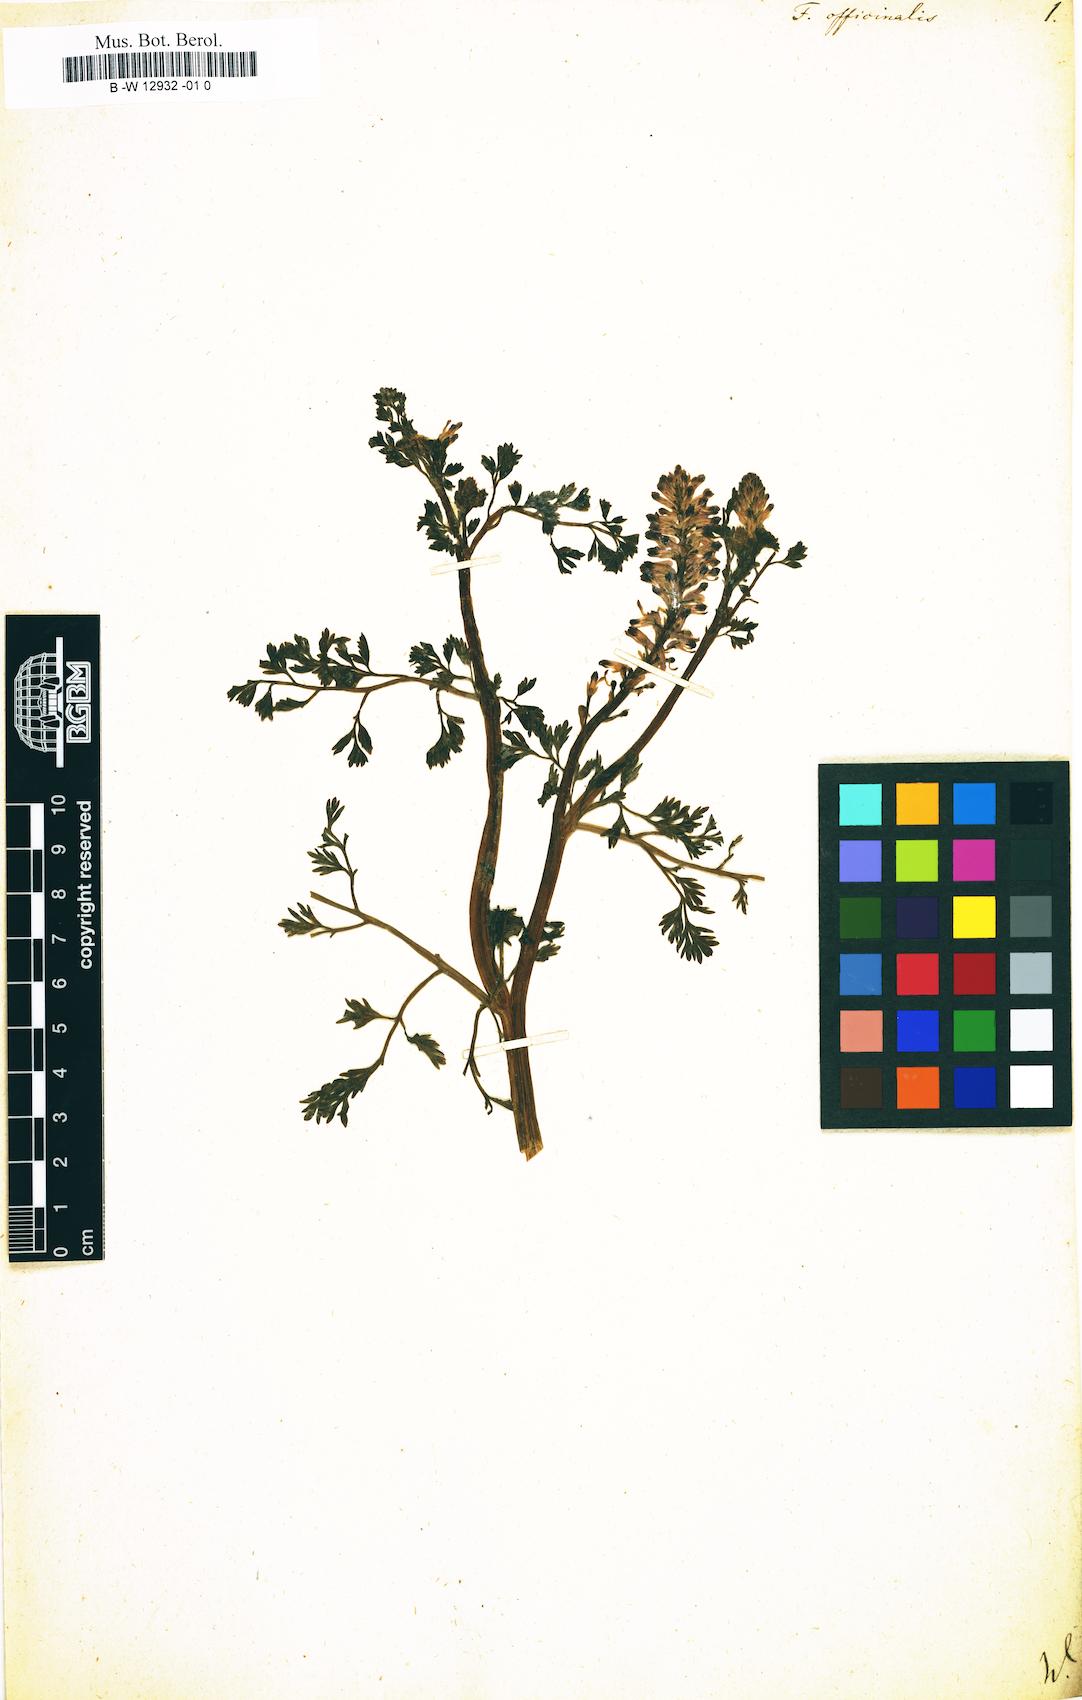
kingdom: Plantae
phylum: Tracheophyta
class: Magnoliopsida
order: Ranunculales
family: Papaveraceae
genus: Fumaria
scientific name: Fumaria officinalis
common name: Common fumitory
